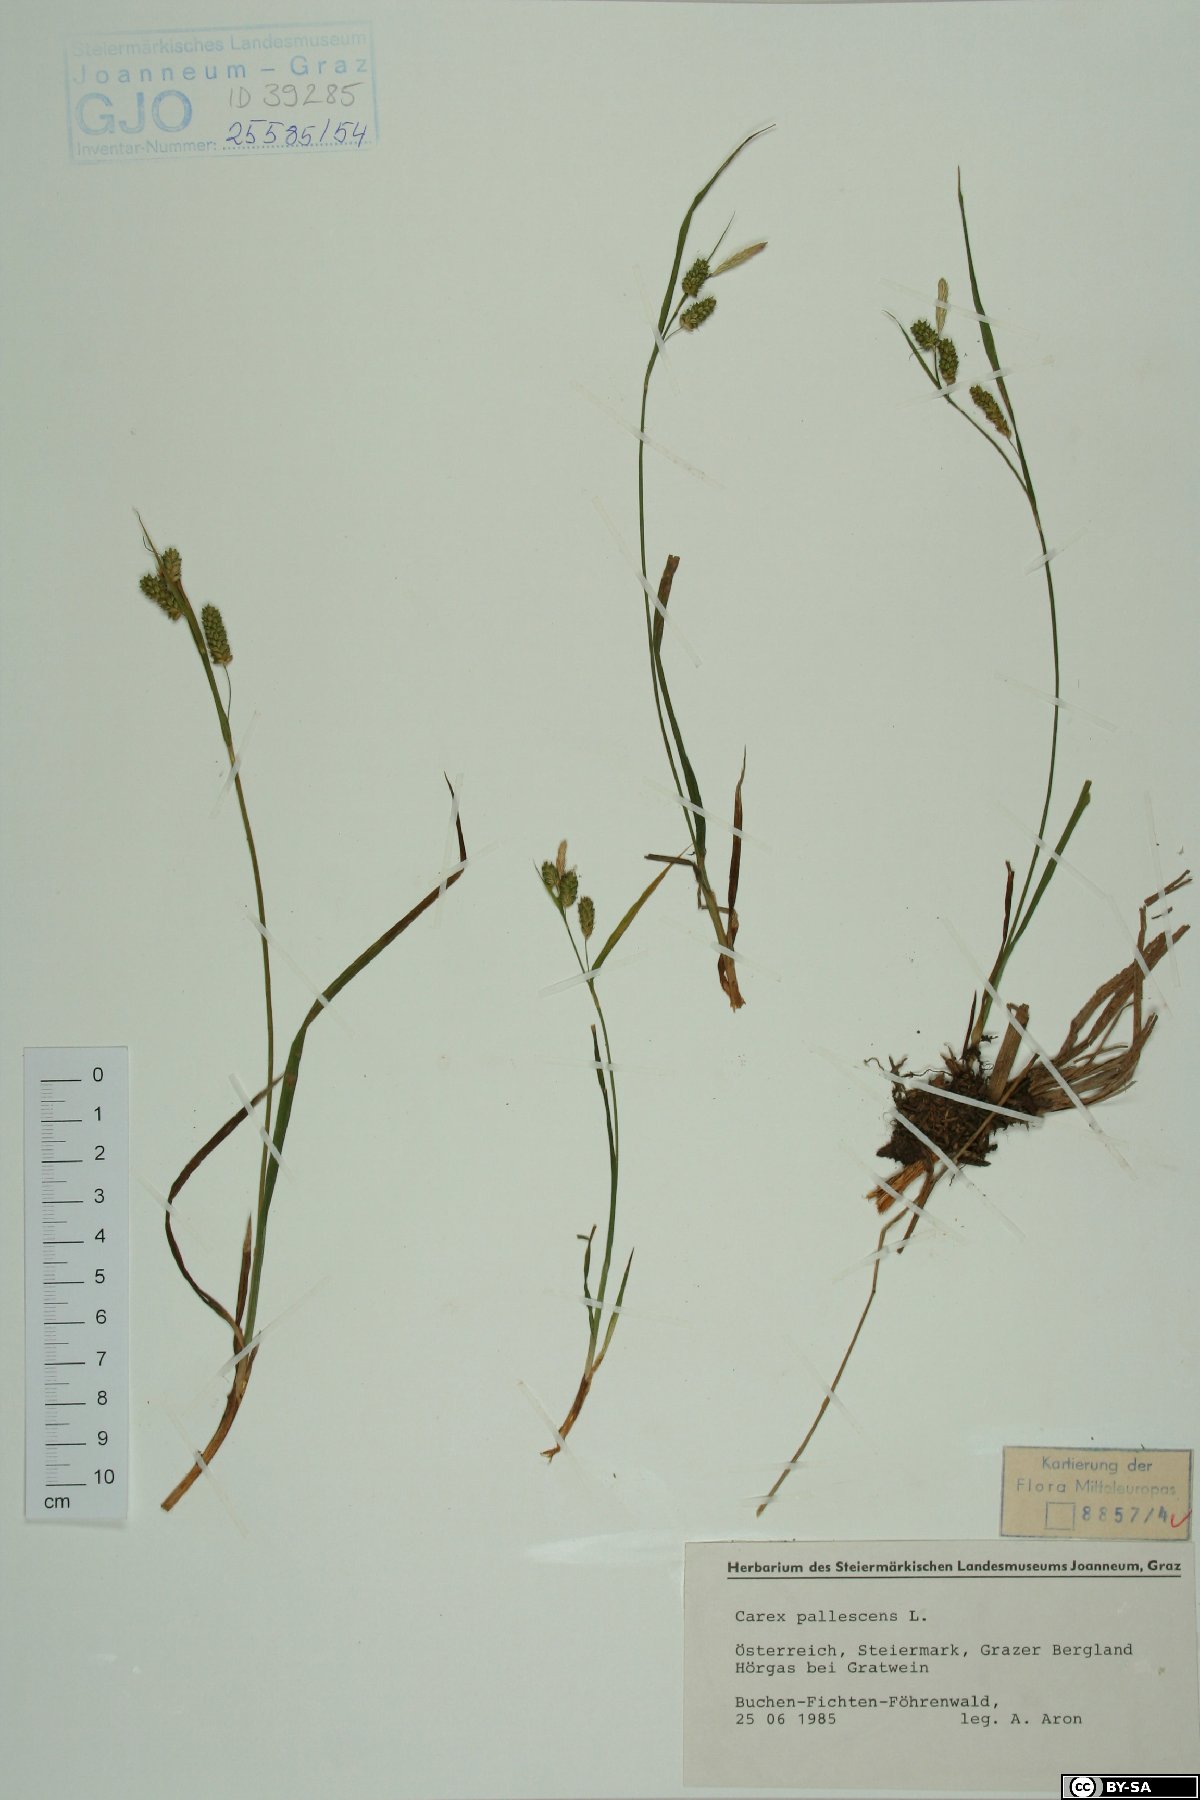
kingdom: Plantae
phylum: Tracheophyta
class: Liliopsida
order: Poales
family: Cyperaceae
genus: Carex
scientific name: Carex pallescens
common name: Pale sedge
